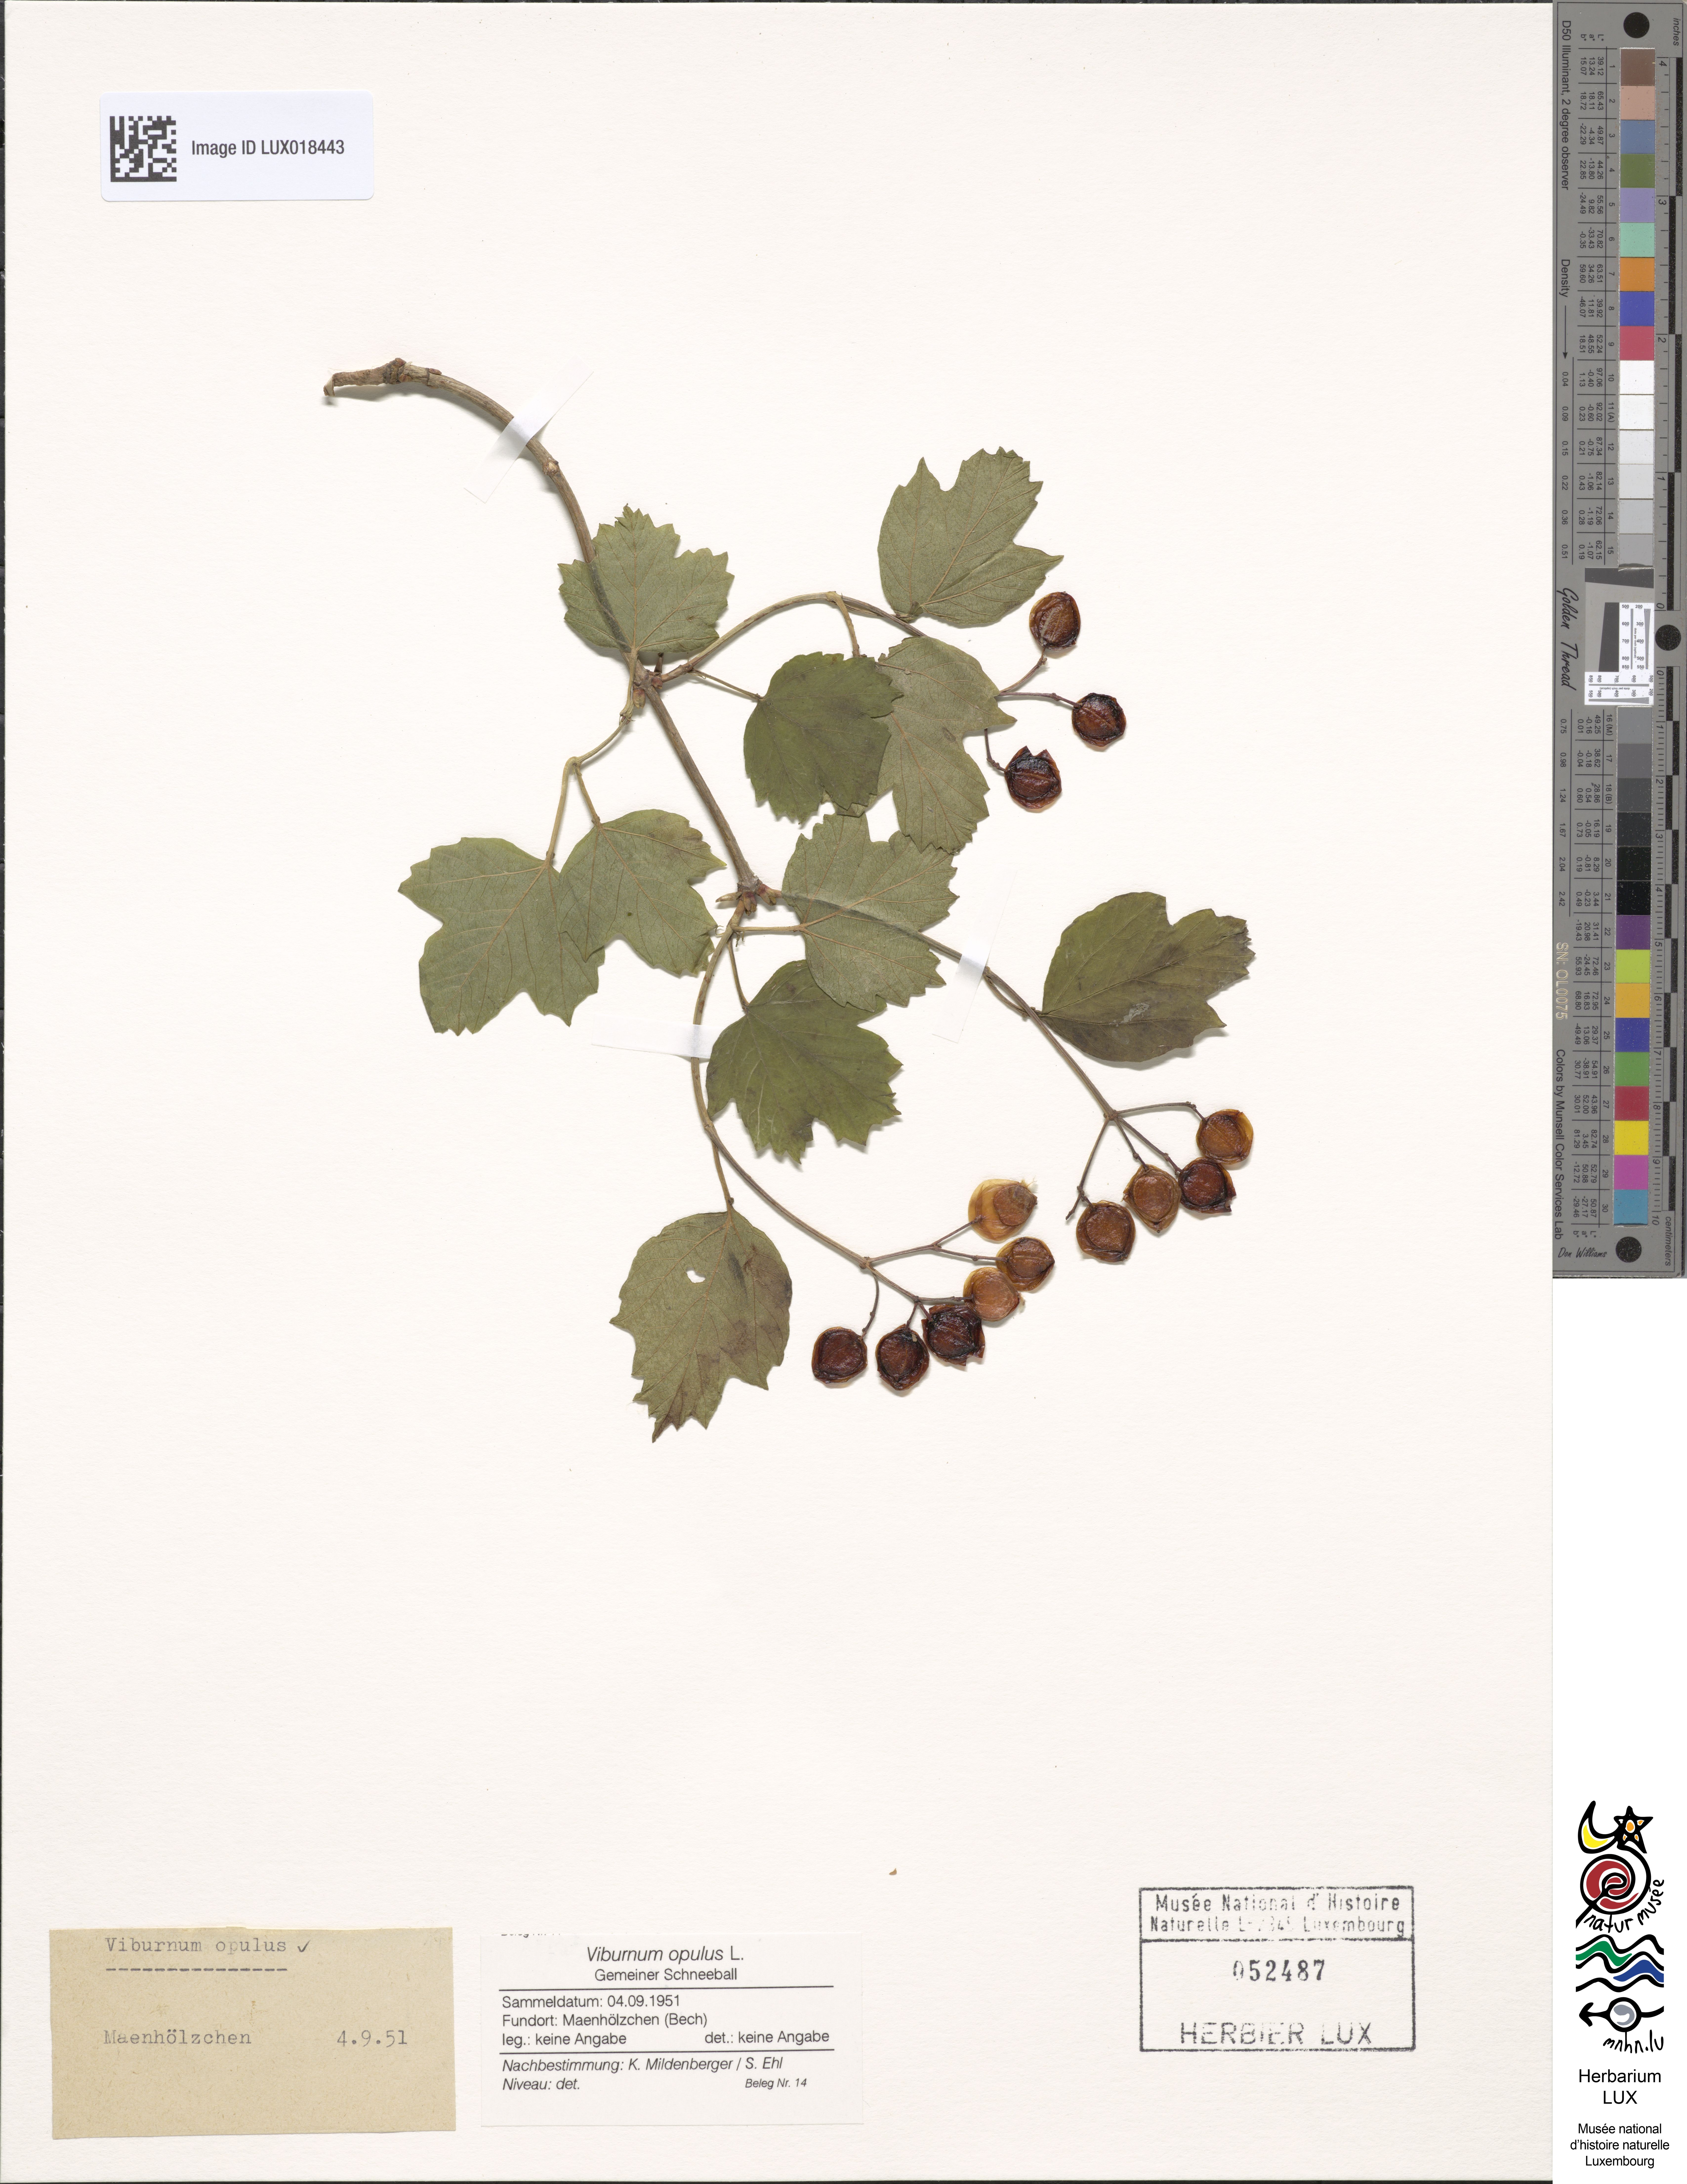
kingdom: Plantae
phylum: Tracheophyta
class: Magnoliopsida
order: Dipsacales
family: Viburnaceae
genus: Viburnum
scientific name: Viburnum opulus
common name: Guelder-rose
